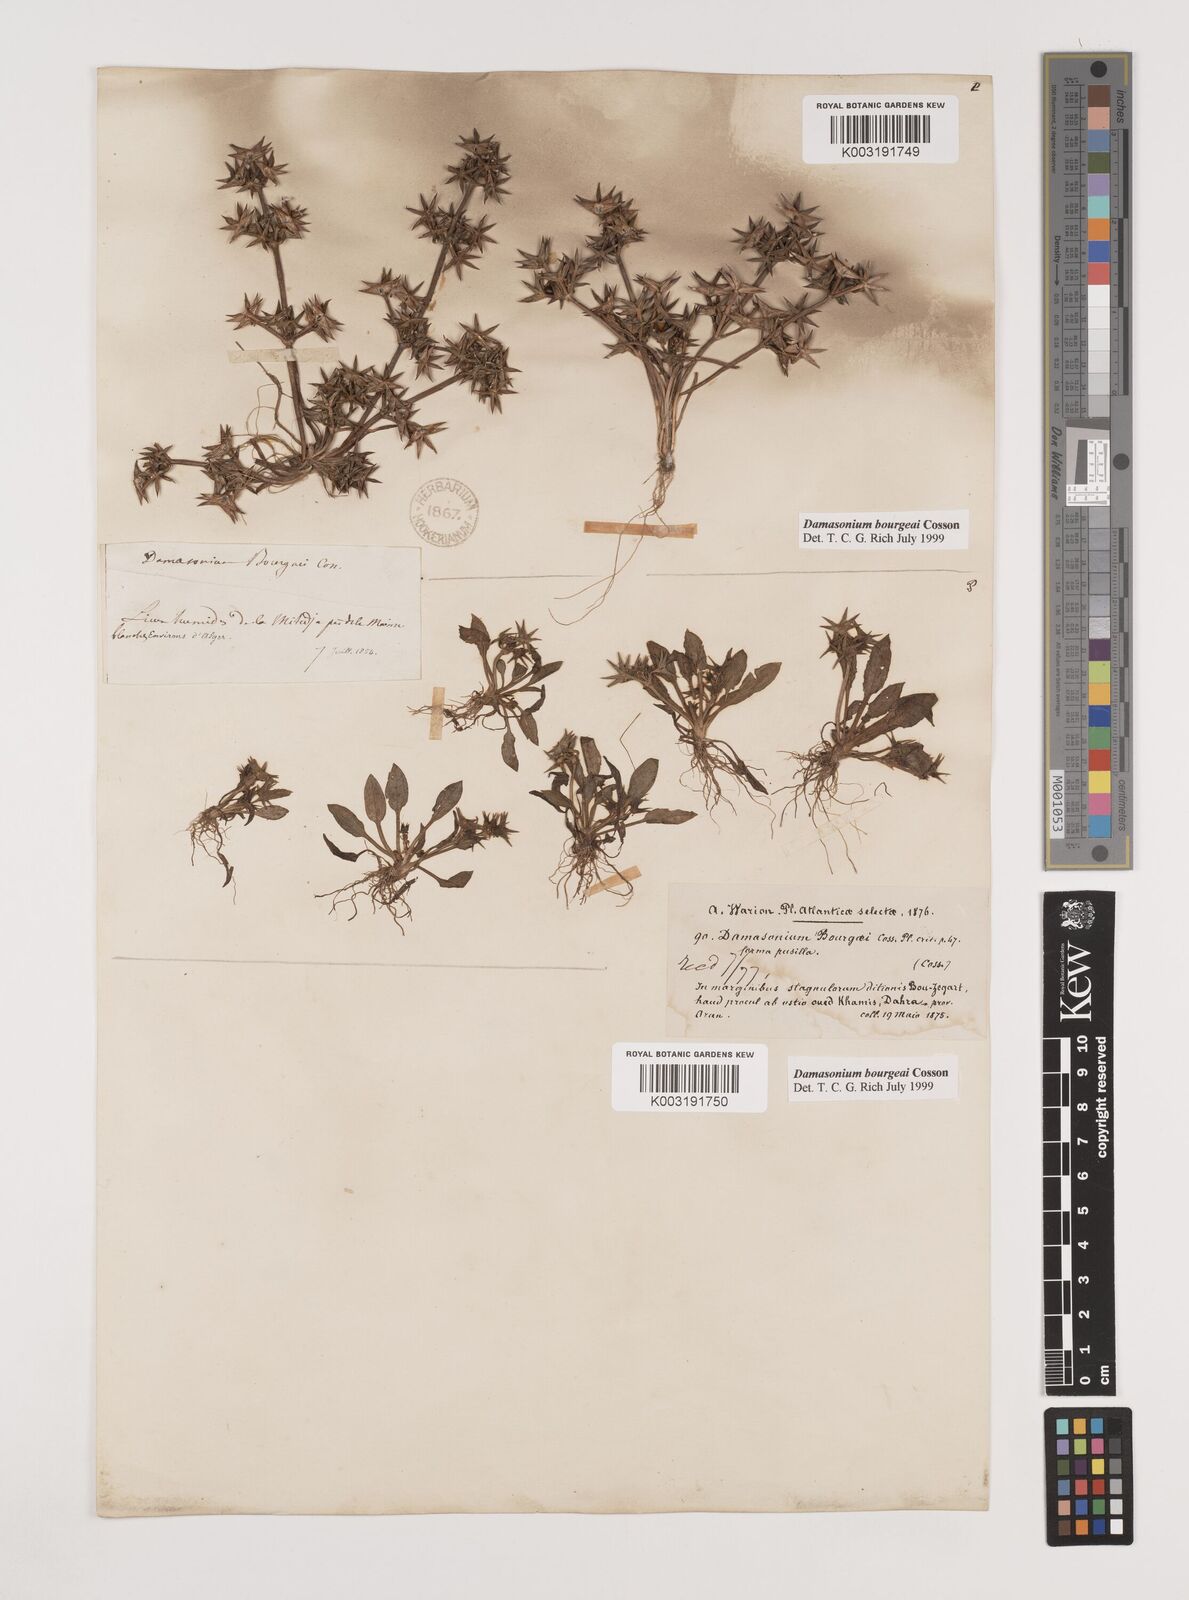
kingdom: Plantae
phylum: Tracheophyta
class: Liliopsida
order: Alismatales
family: Alismataceae
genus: Damasonium
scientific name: Damasonium bourgaei
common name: Starfruit
